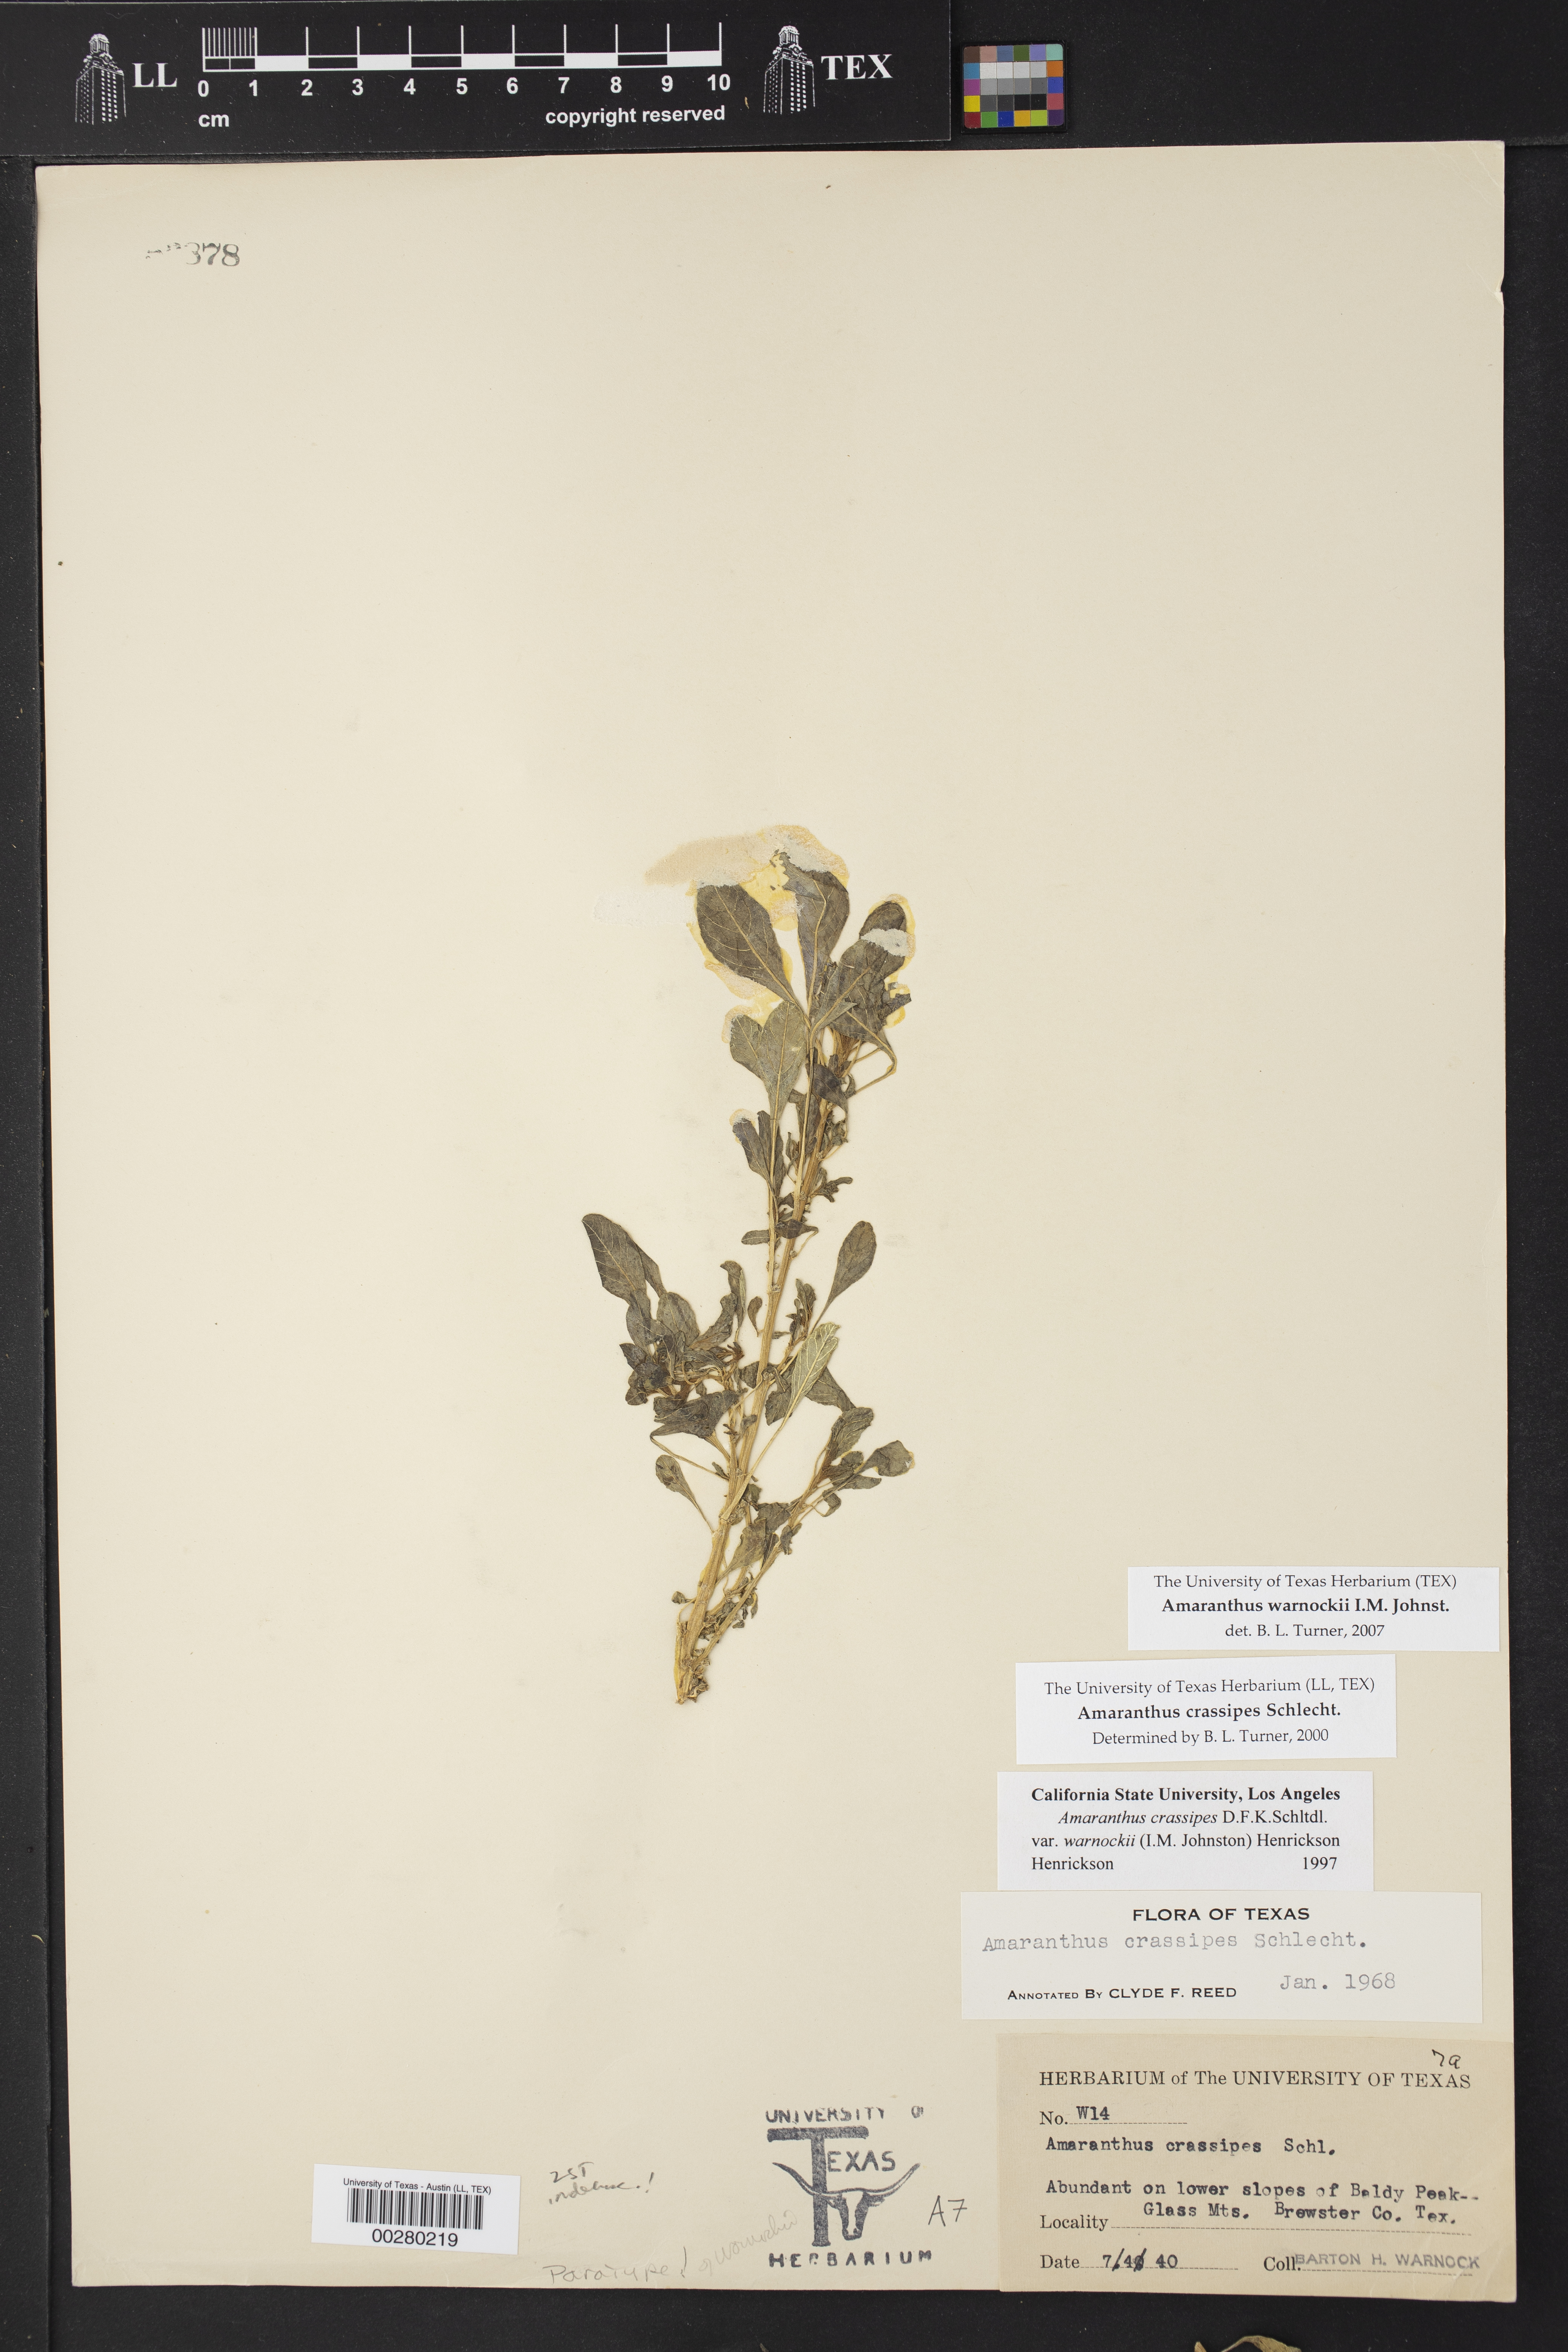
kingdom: Plantae
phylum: Tracheophyta
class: Magnoliopsida
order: Caryophyllales
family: Amaranthaceae
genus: Amaranthus
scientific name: Amaranthus crassipes
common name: Spreading amaranth
